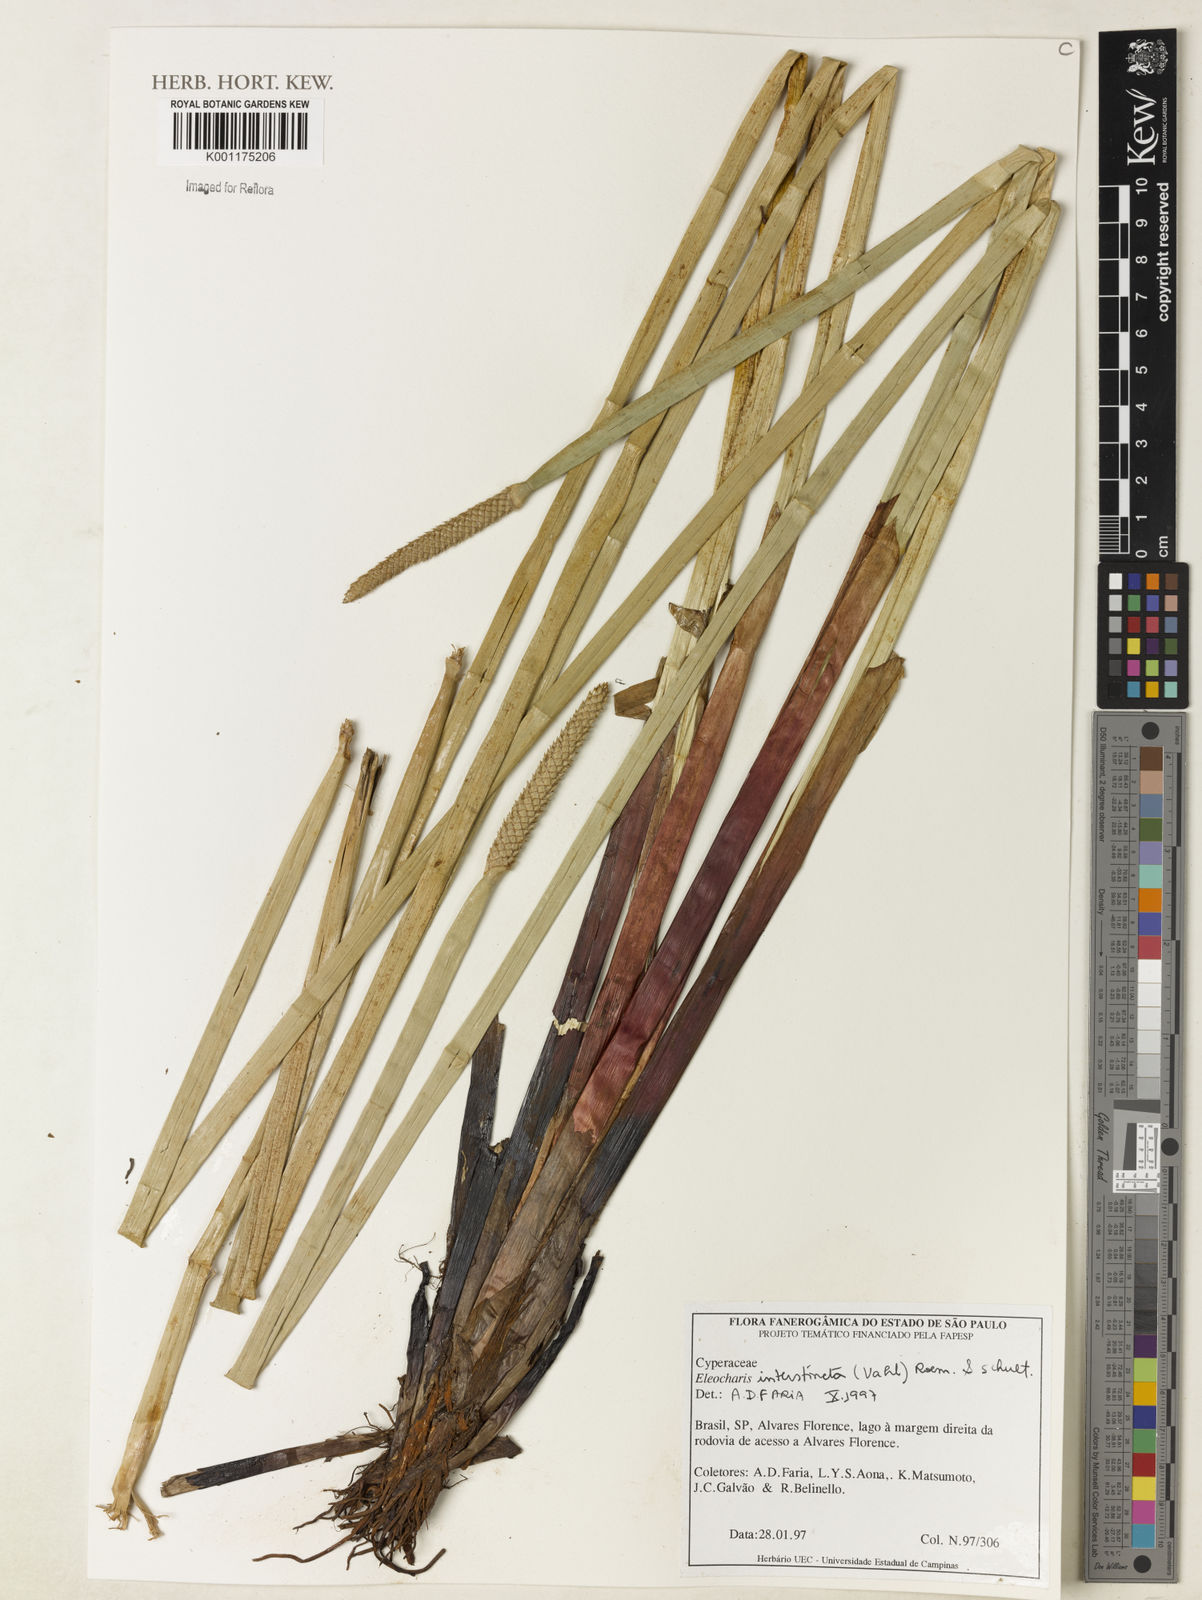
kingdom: Plantae
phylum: Tracheophyta
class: Liliopsida
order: Poales
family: Cyperaceae
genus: Eleocharis
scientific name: Eleocharis interstincta
